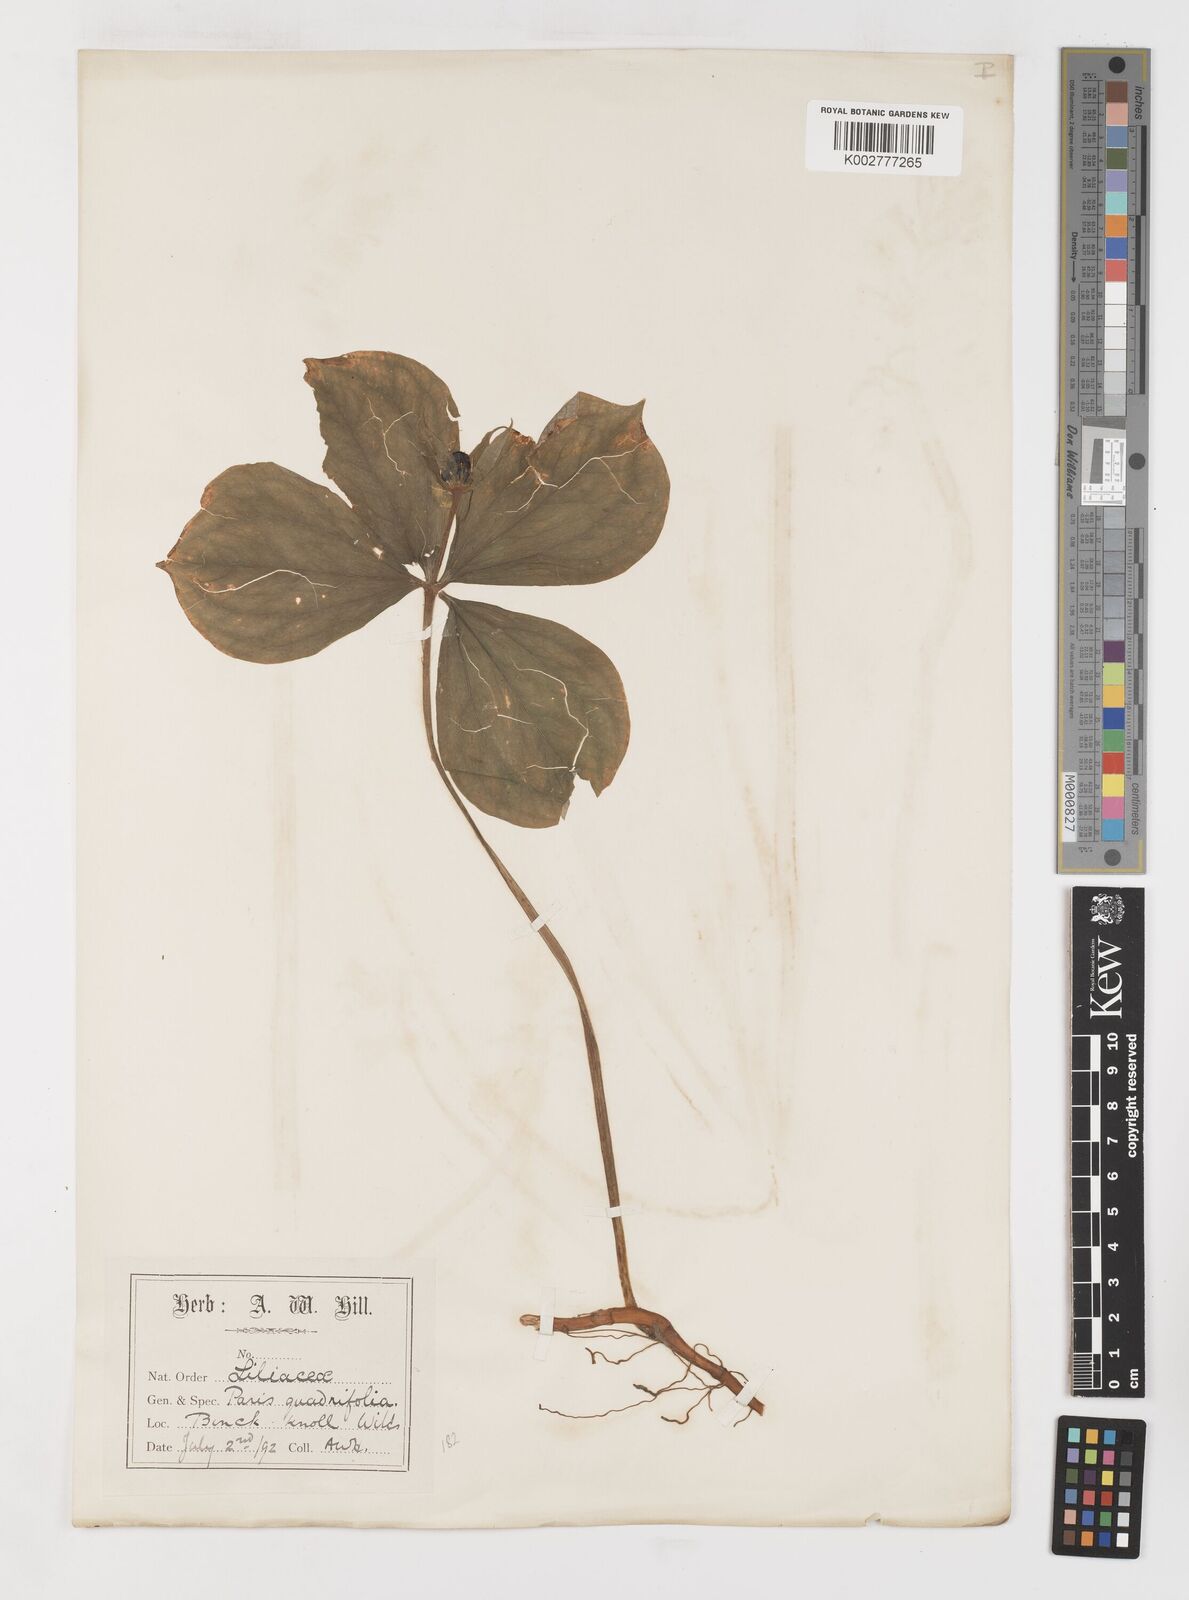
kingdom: Plantae
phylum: Tracheophyta
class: Liliopsida
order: Liliales
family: Melanthiaceae
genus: Paris
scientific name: Paris quadrifolia
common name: Herb-paris
